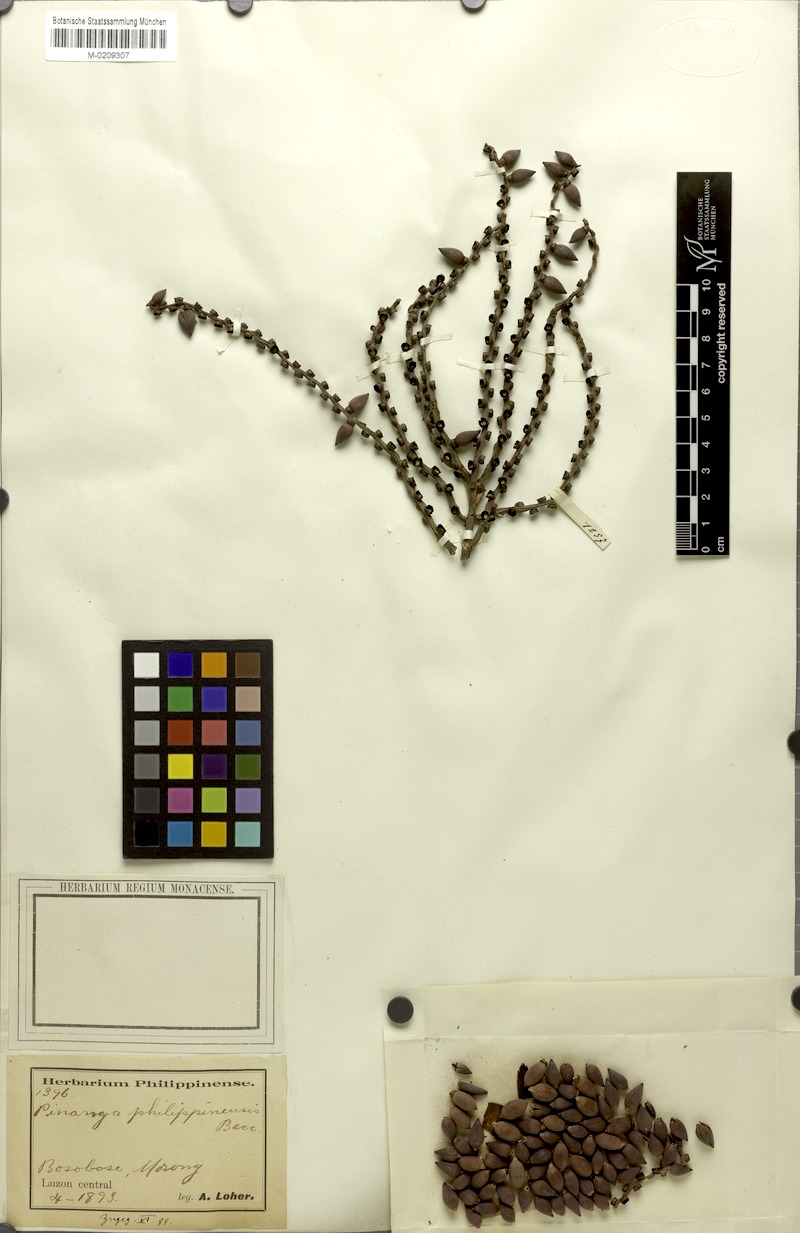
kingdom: Plantae
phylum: Tracheophyta
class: Liliopsida
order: Arecales
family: Arecaceae
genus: Pinanga
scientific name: Pinanga philippinensis
